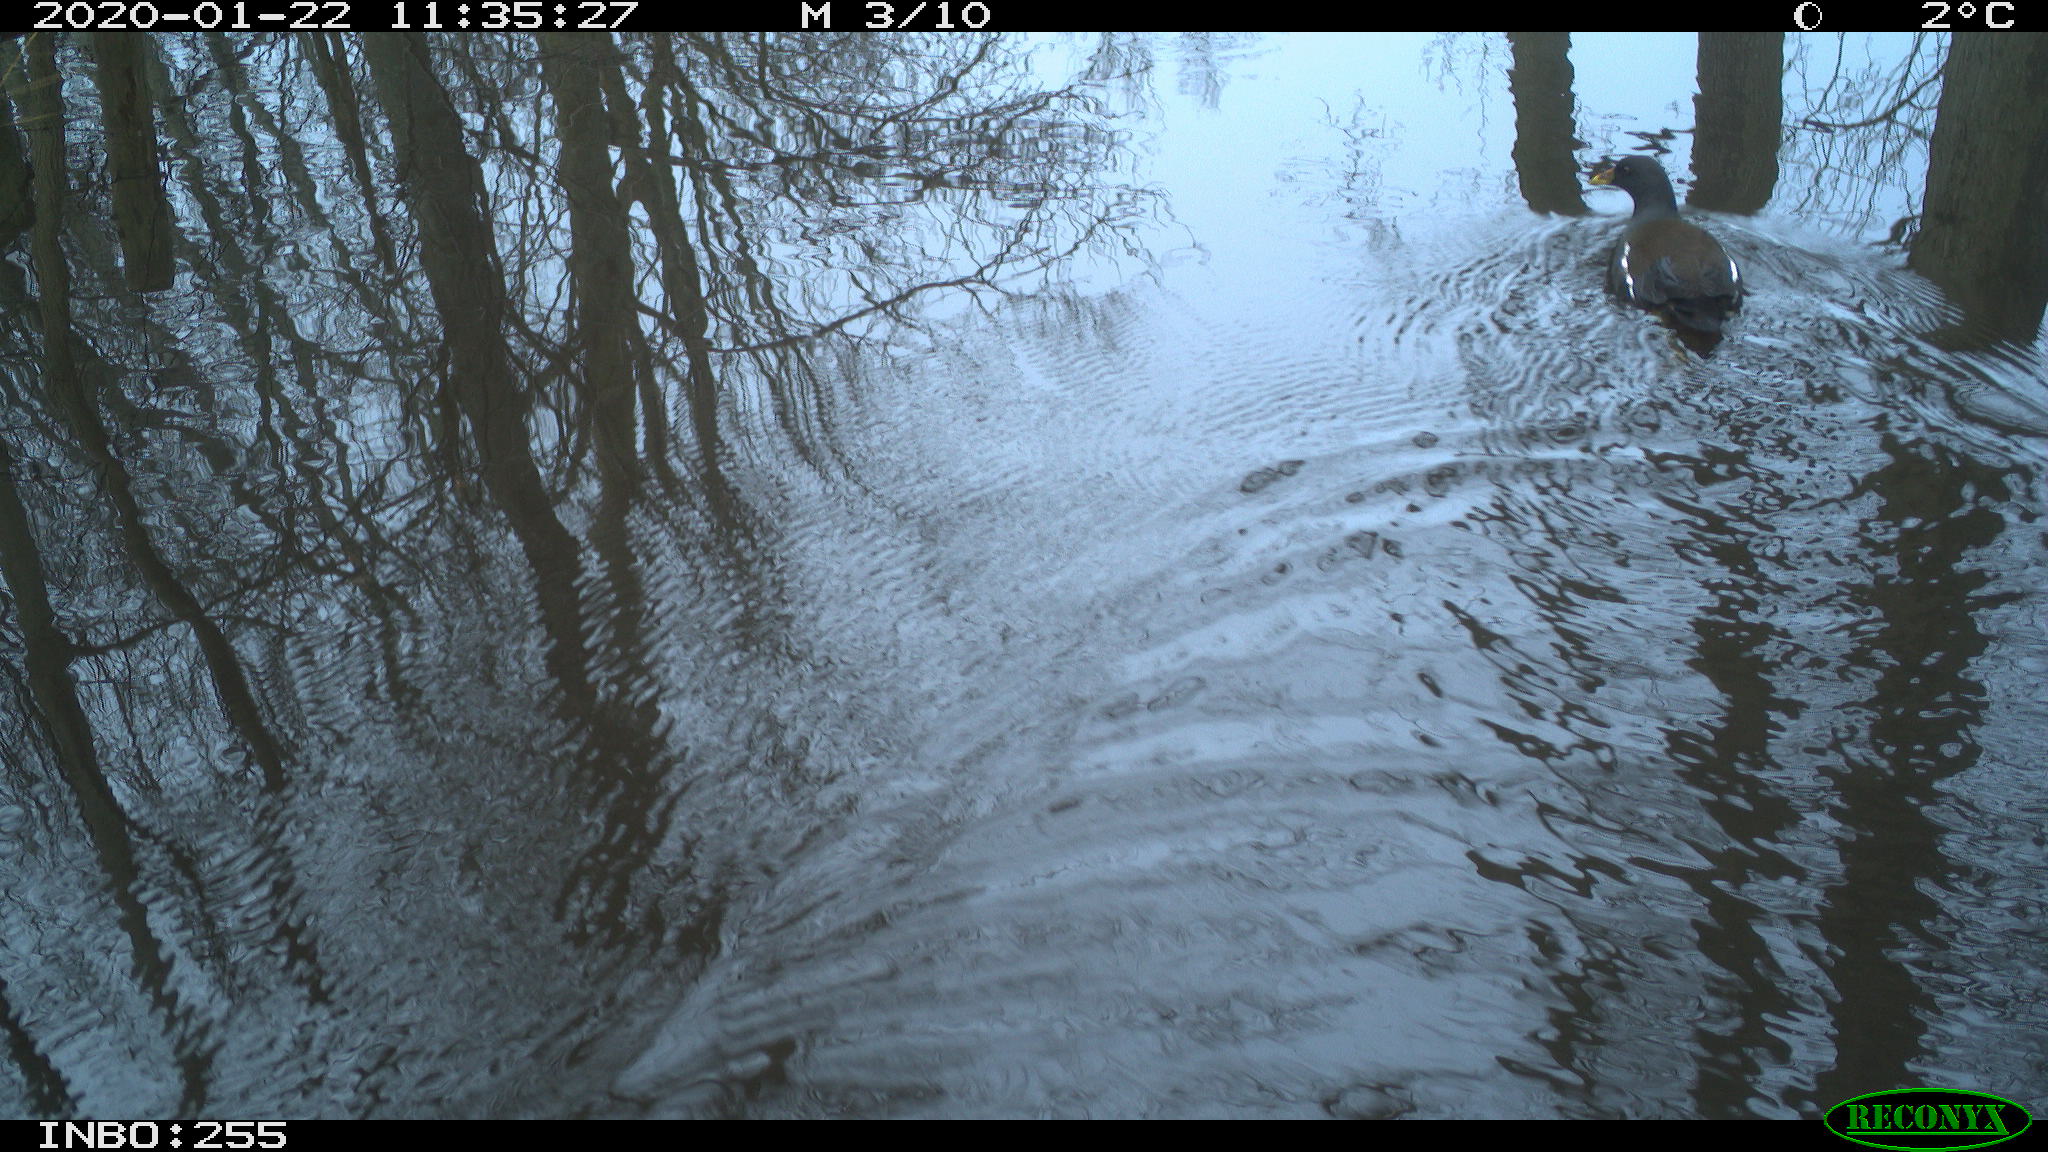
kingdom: Animalia
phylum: Chordata
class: Aves
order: Gruiformes
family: Rallidae
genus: Gallinula
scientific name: Gallinula chloropus
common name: Common moorhen
